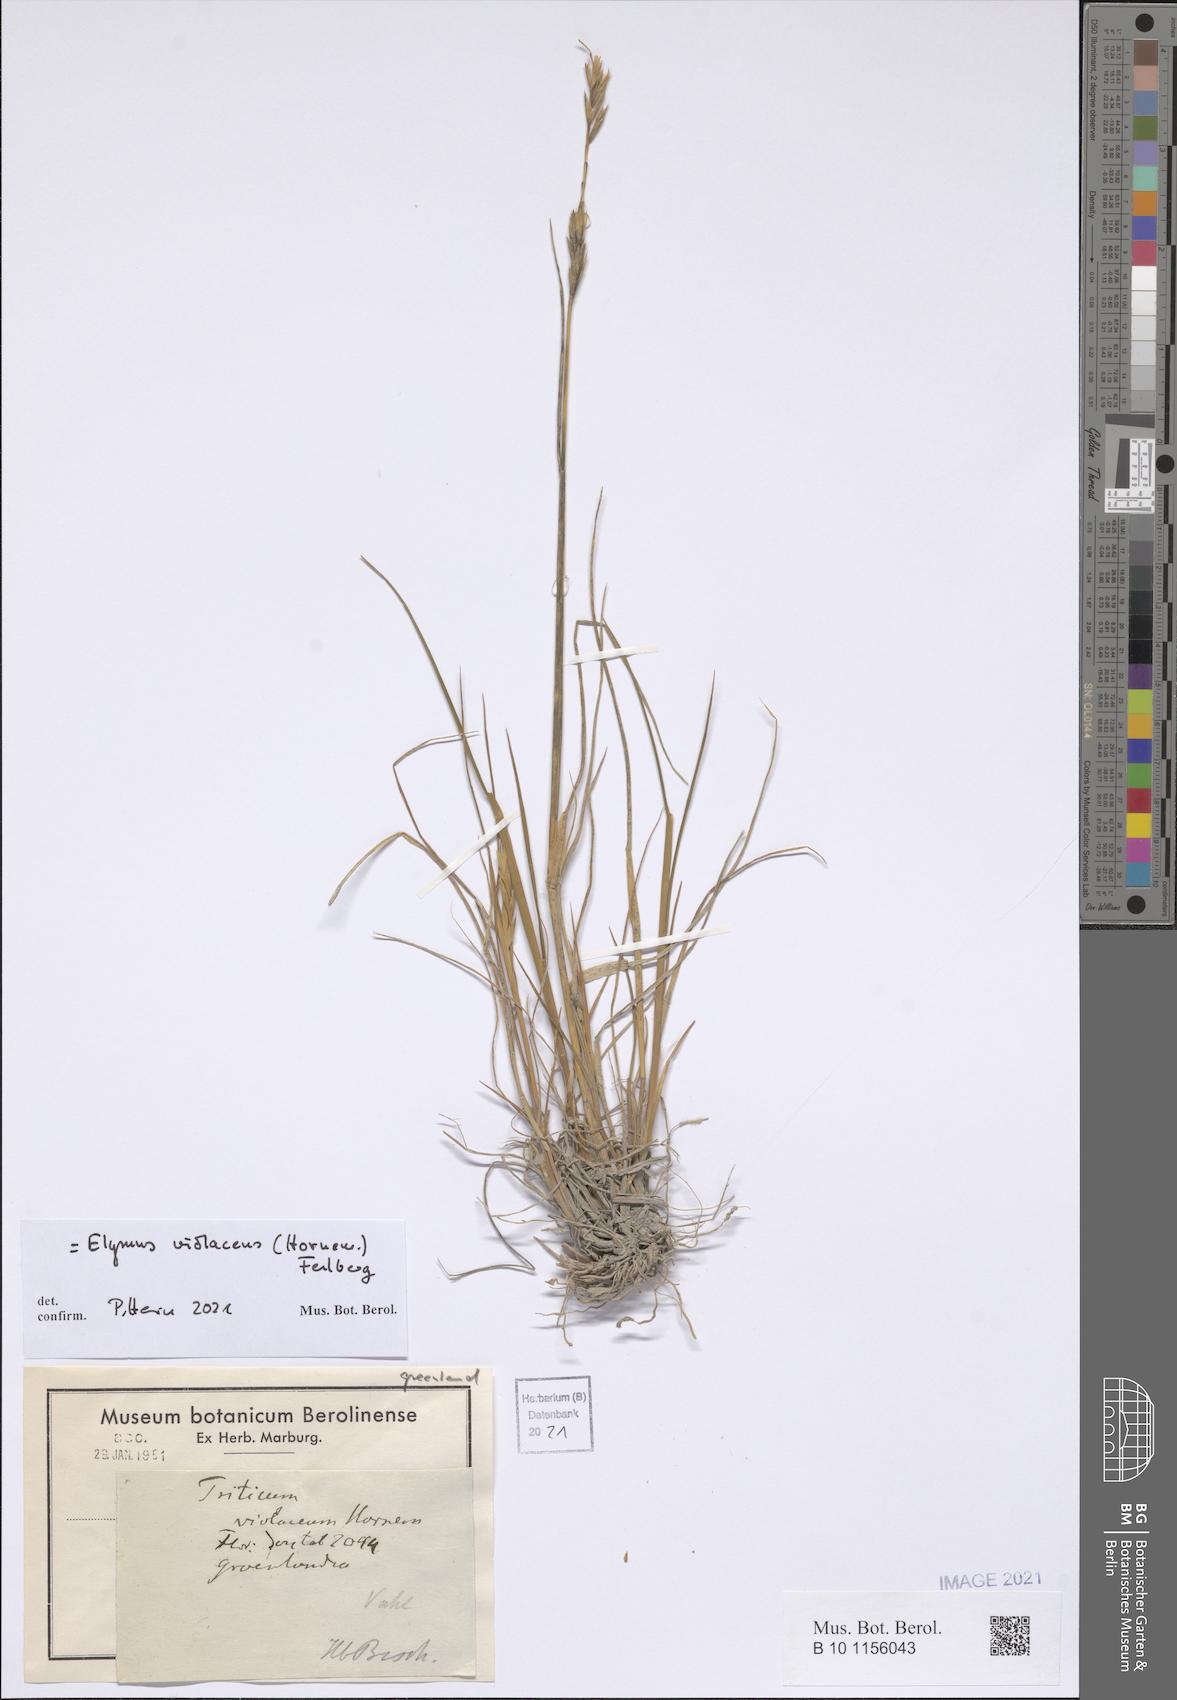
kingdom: Plantae
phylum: Tracheophyta
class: Liliopsida
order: Poales
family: Poaceae
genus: Elymus
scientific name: Elymus violaceus
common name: Arctic wheatgrass
